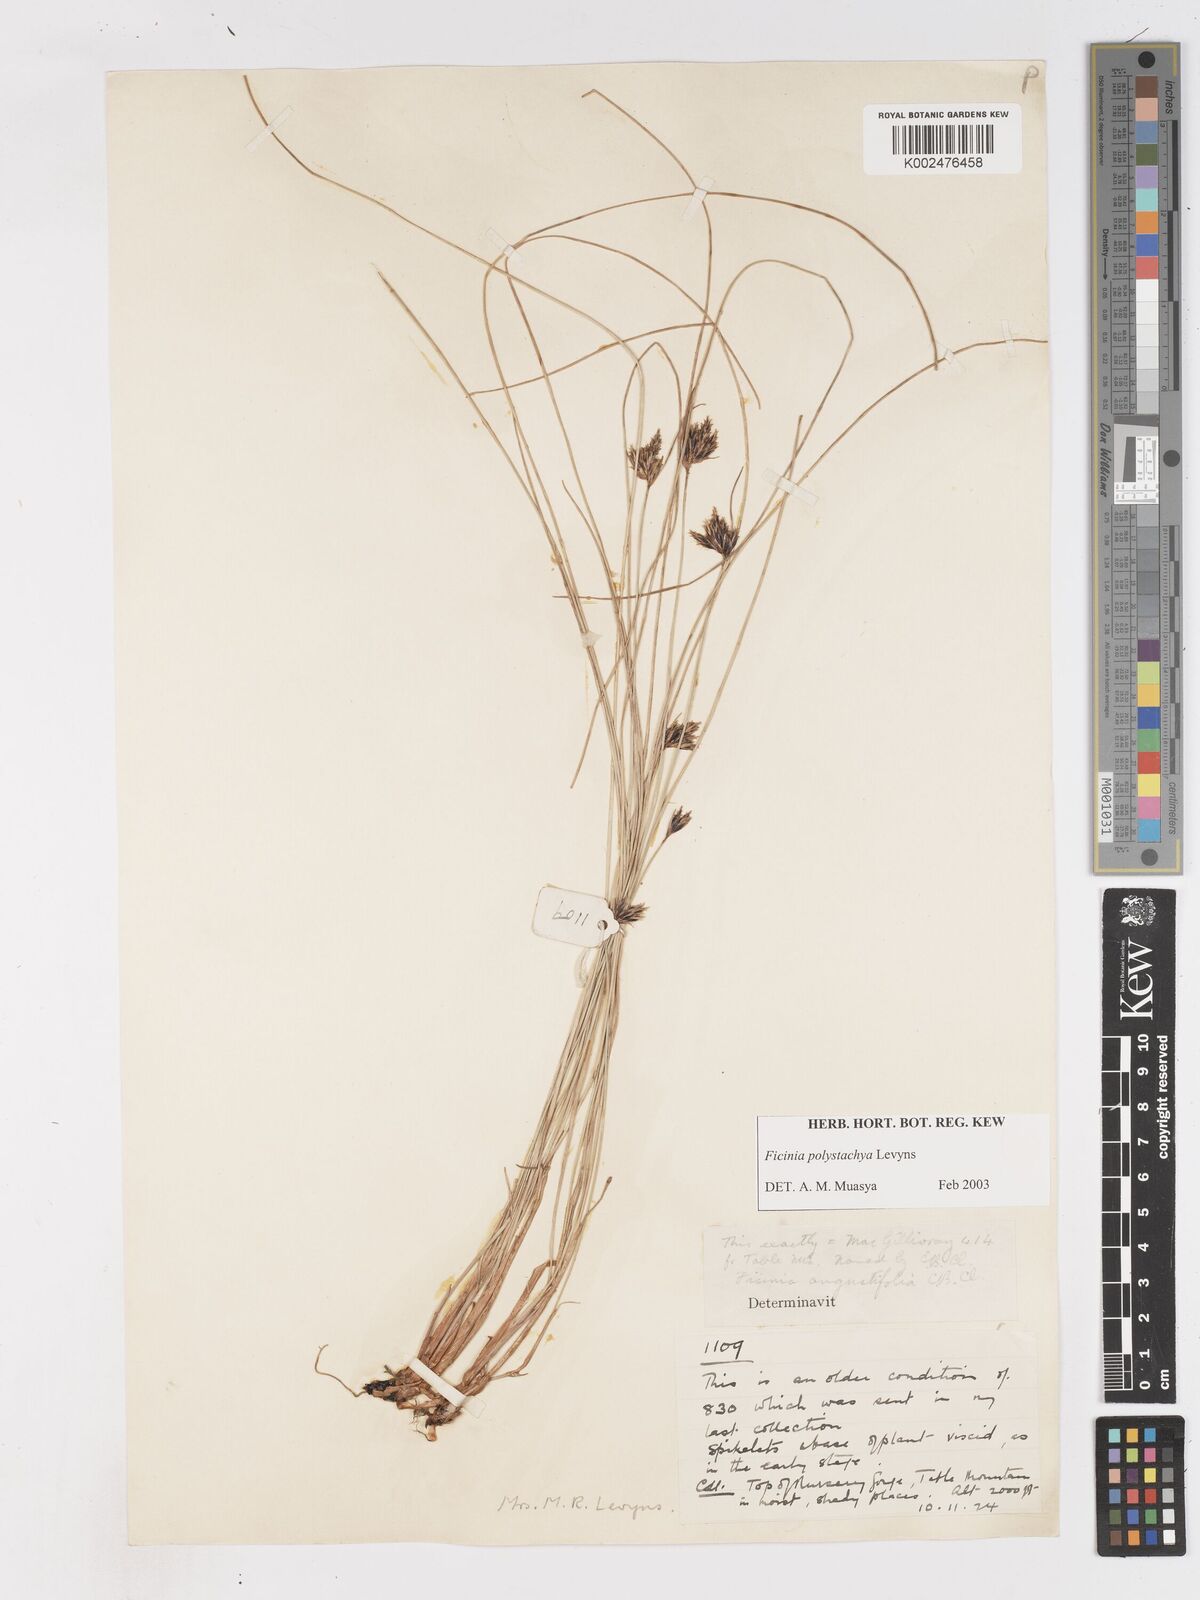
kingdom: Plantae
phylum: Tracheophyta
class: Liliopsida
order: Poales
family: Cyperaceae
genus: Ficinia
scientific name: Ficinia polystachya
